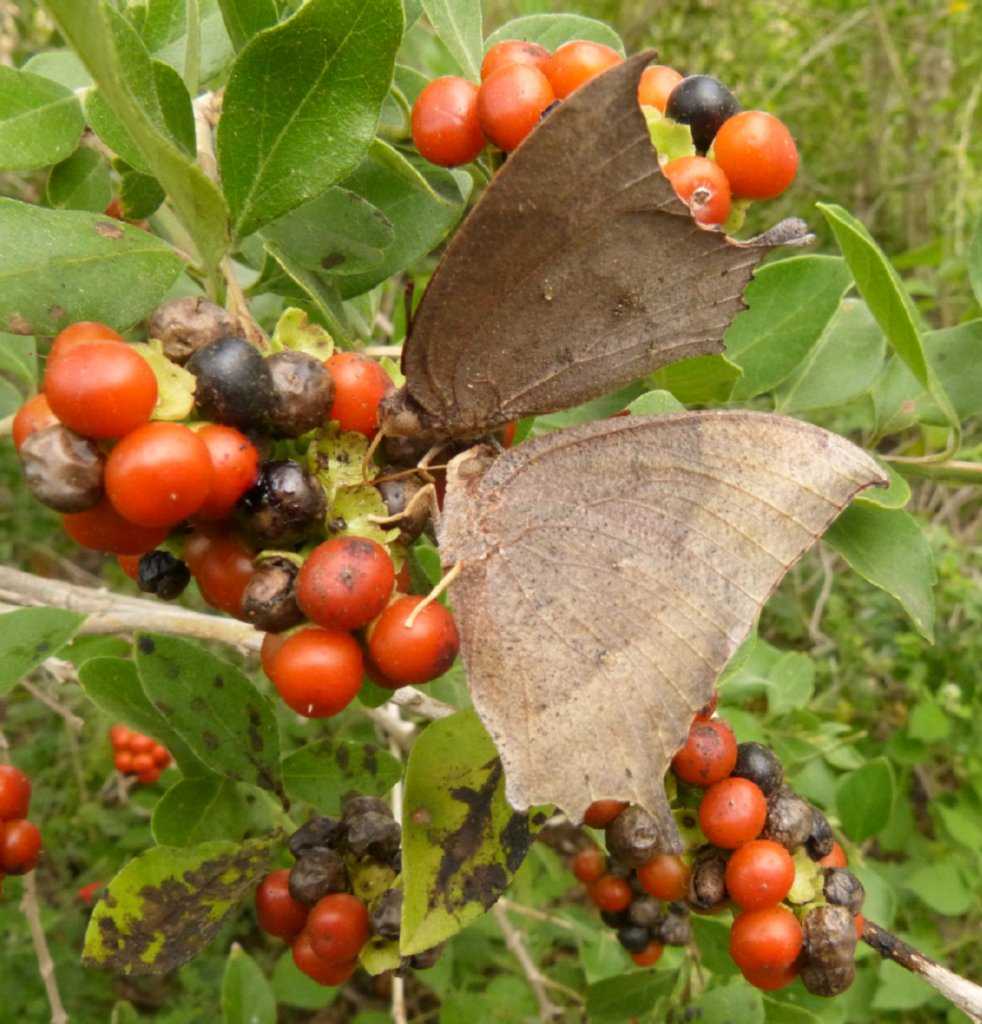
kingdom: Animalia
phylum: Arthropoda
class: Insecta
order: Lepidoptera
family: Nymphalidae
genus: Anaea
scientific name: Anaea aidea
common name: Tropical Leafwing
